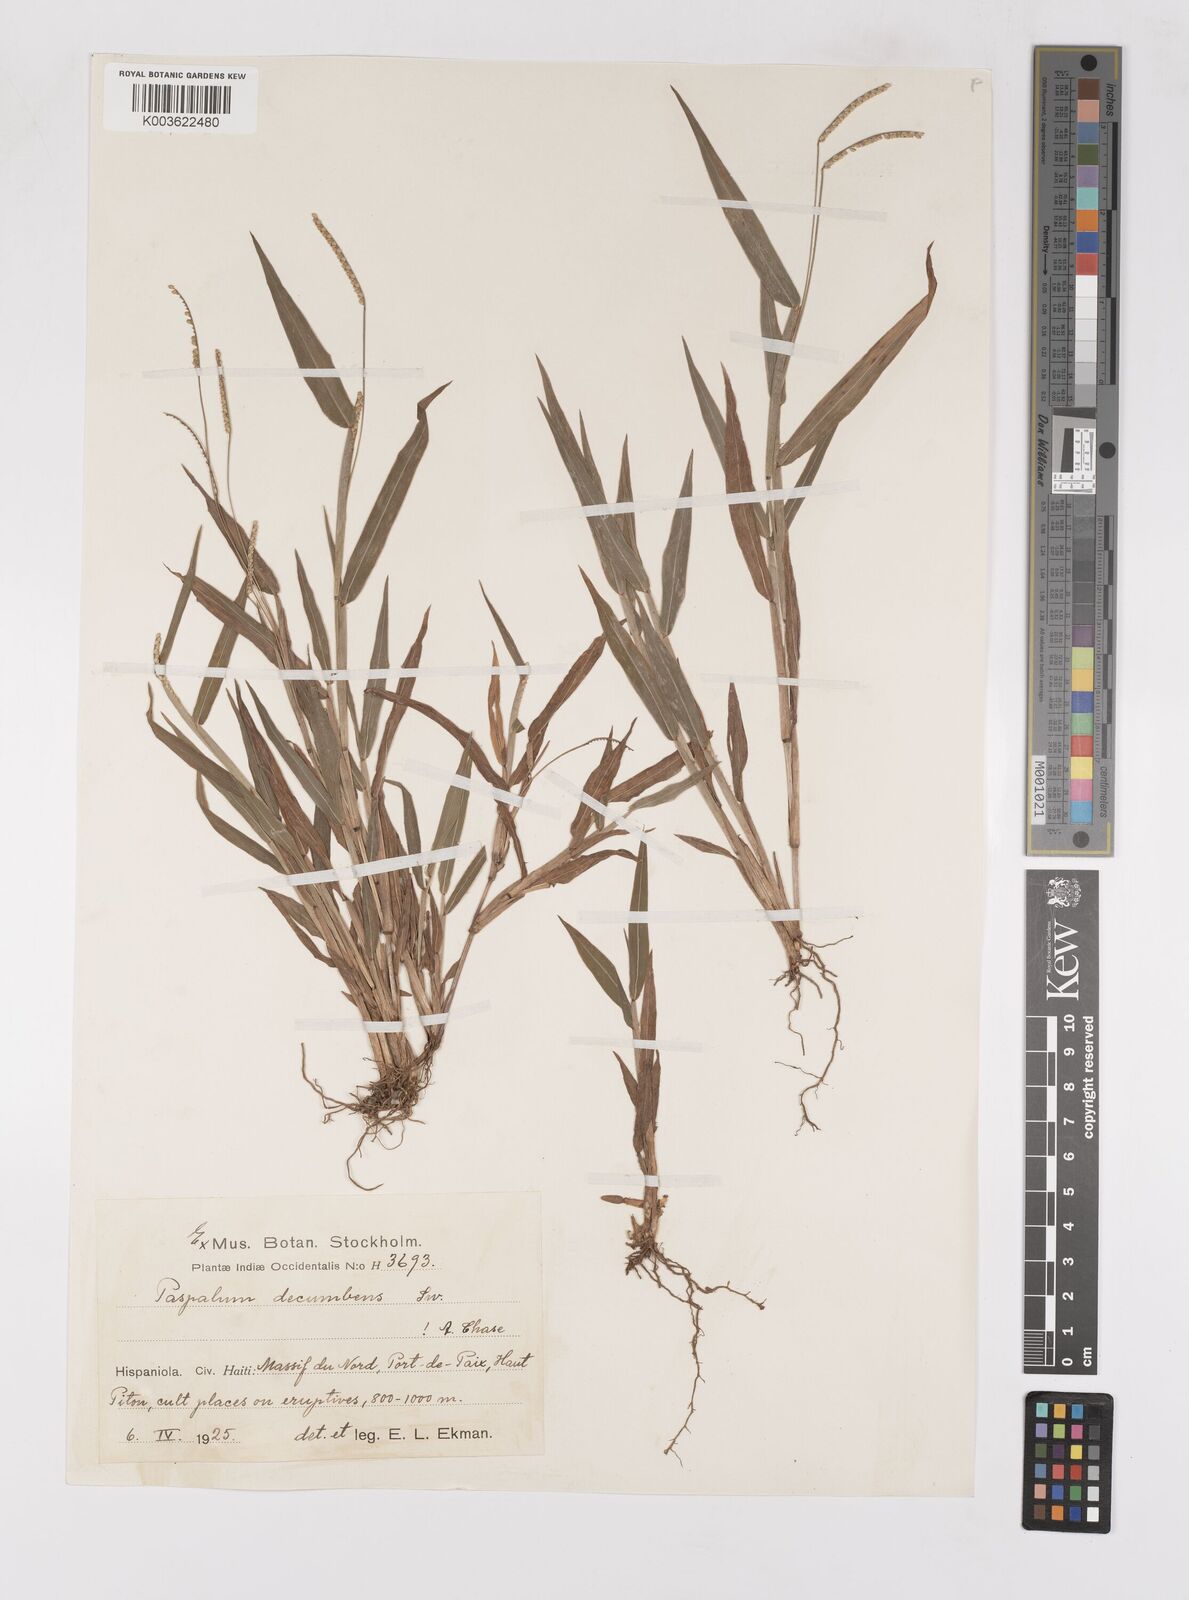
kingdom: Plantae
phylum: Tracheophyta
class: Liliopsida
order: Poales
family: Poaceae
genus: Paspalum
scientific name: Paspalum decumbens
